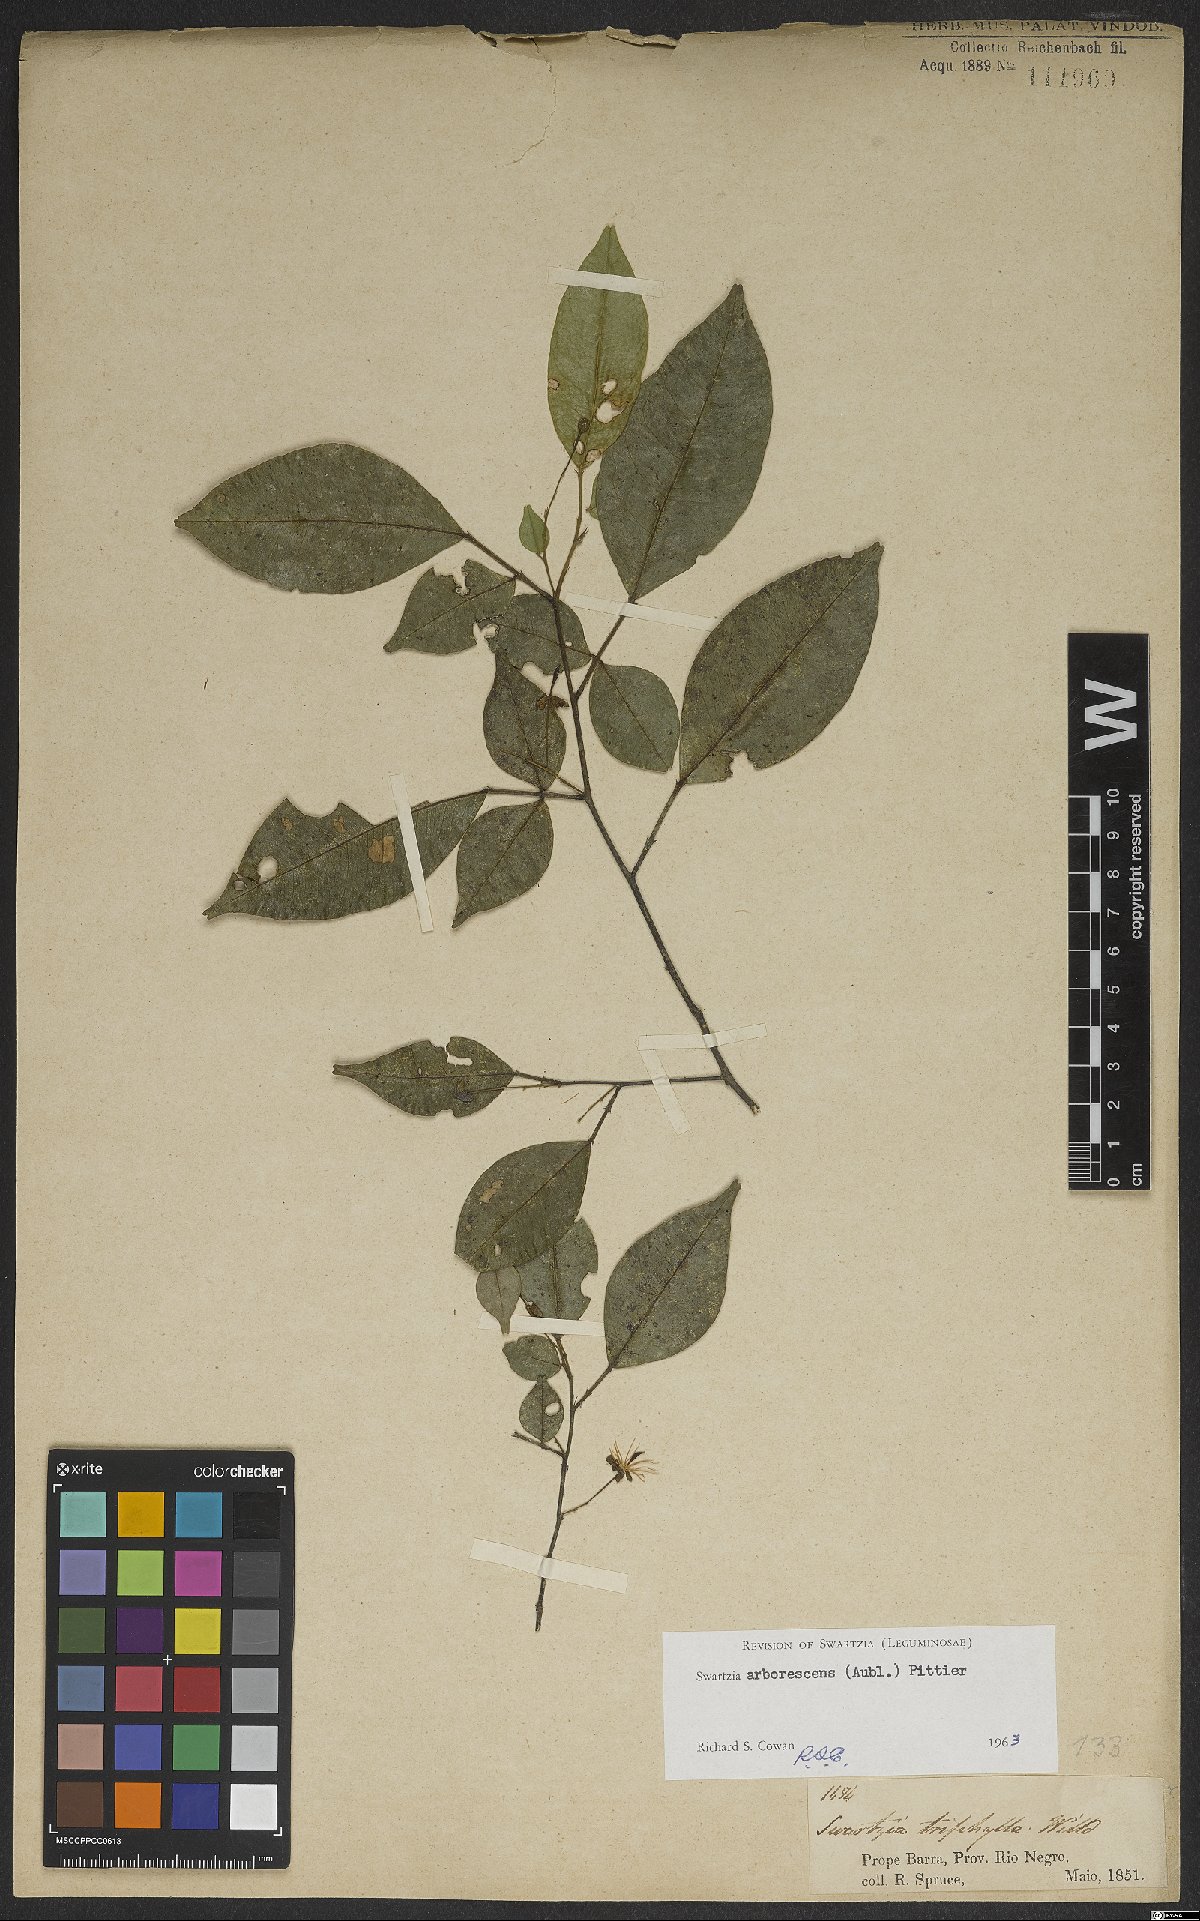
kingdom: Plantae
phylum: Tracheophyta
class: Magnoliopsida
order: Fabales
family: Fabaceae
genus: Swartzia
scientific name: Swartzia arborescens
